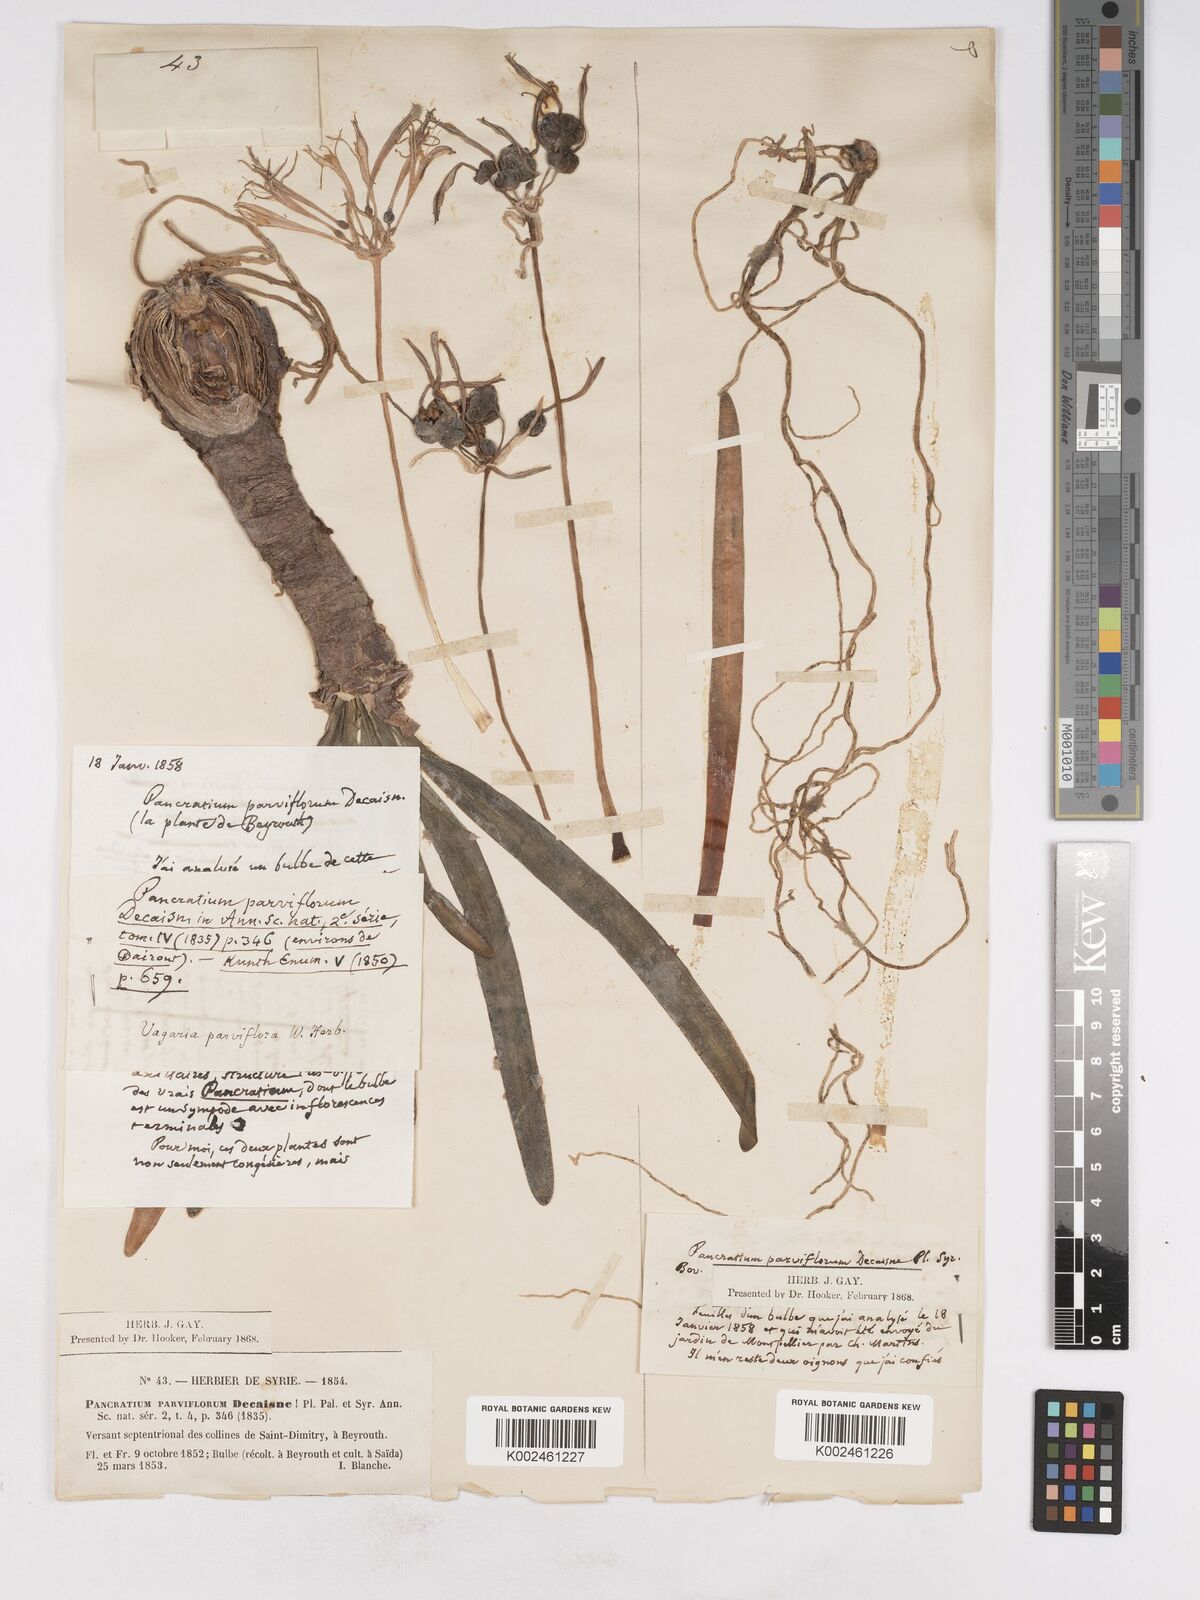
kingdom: Plantae
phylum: Tracheophyta
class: Liliopsida
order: Asparagales
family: Amaryllidaceae
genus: Vagaria
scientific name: Vagaria parviflora
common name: Small-flowered pancratium
